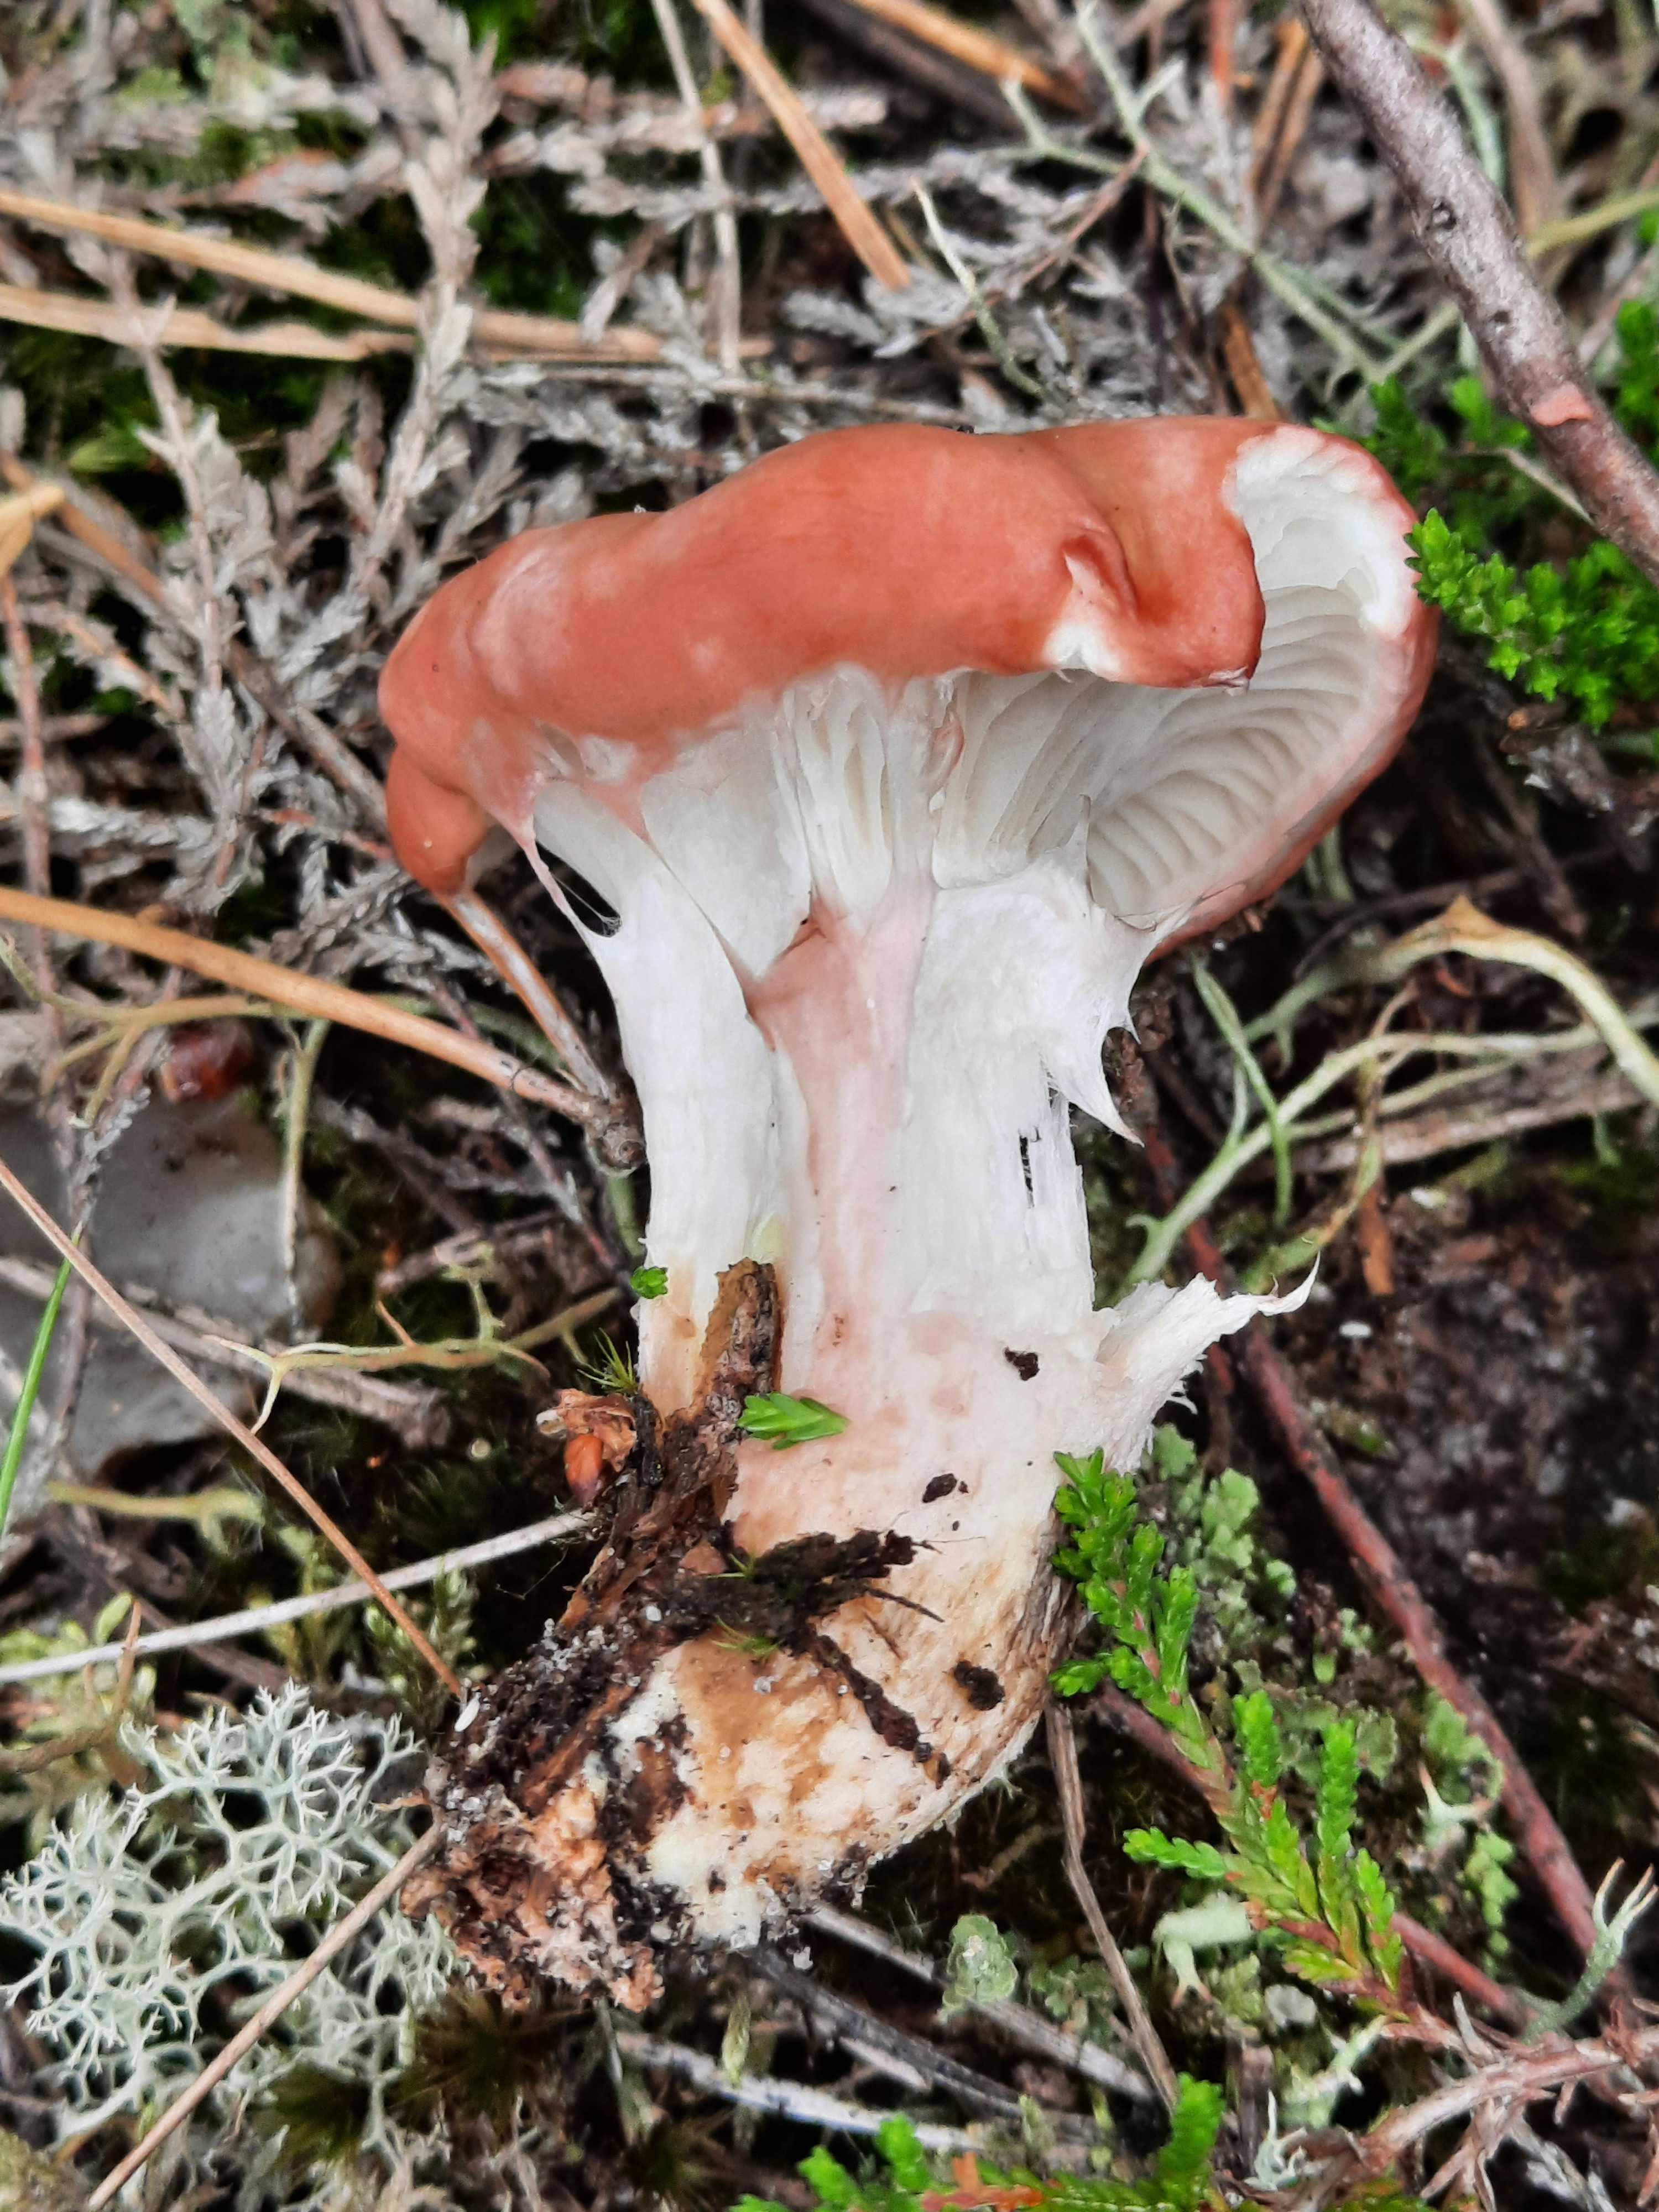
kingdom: Fungi
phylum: Basidiomycota
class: Agaricomycetes
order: Boletales
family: Gomphidiaceae
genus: Gomphidius
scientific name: Gomphidius roseus
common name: rosenrød slimslør
